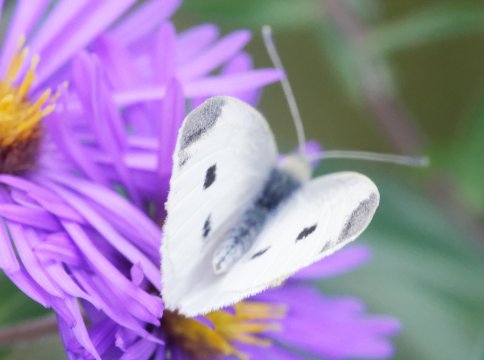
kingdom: Animalia
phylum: Arthropoda
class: Insecta
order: Lepidoptera
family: Pieridae
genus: Pieris
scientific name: Pieris rapae
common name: Cabbage White
